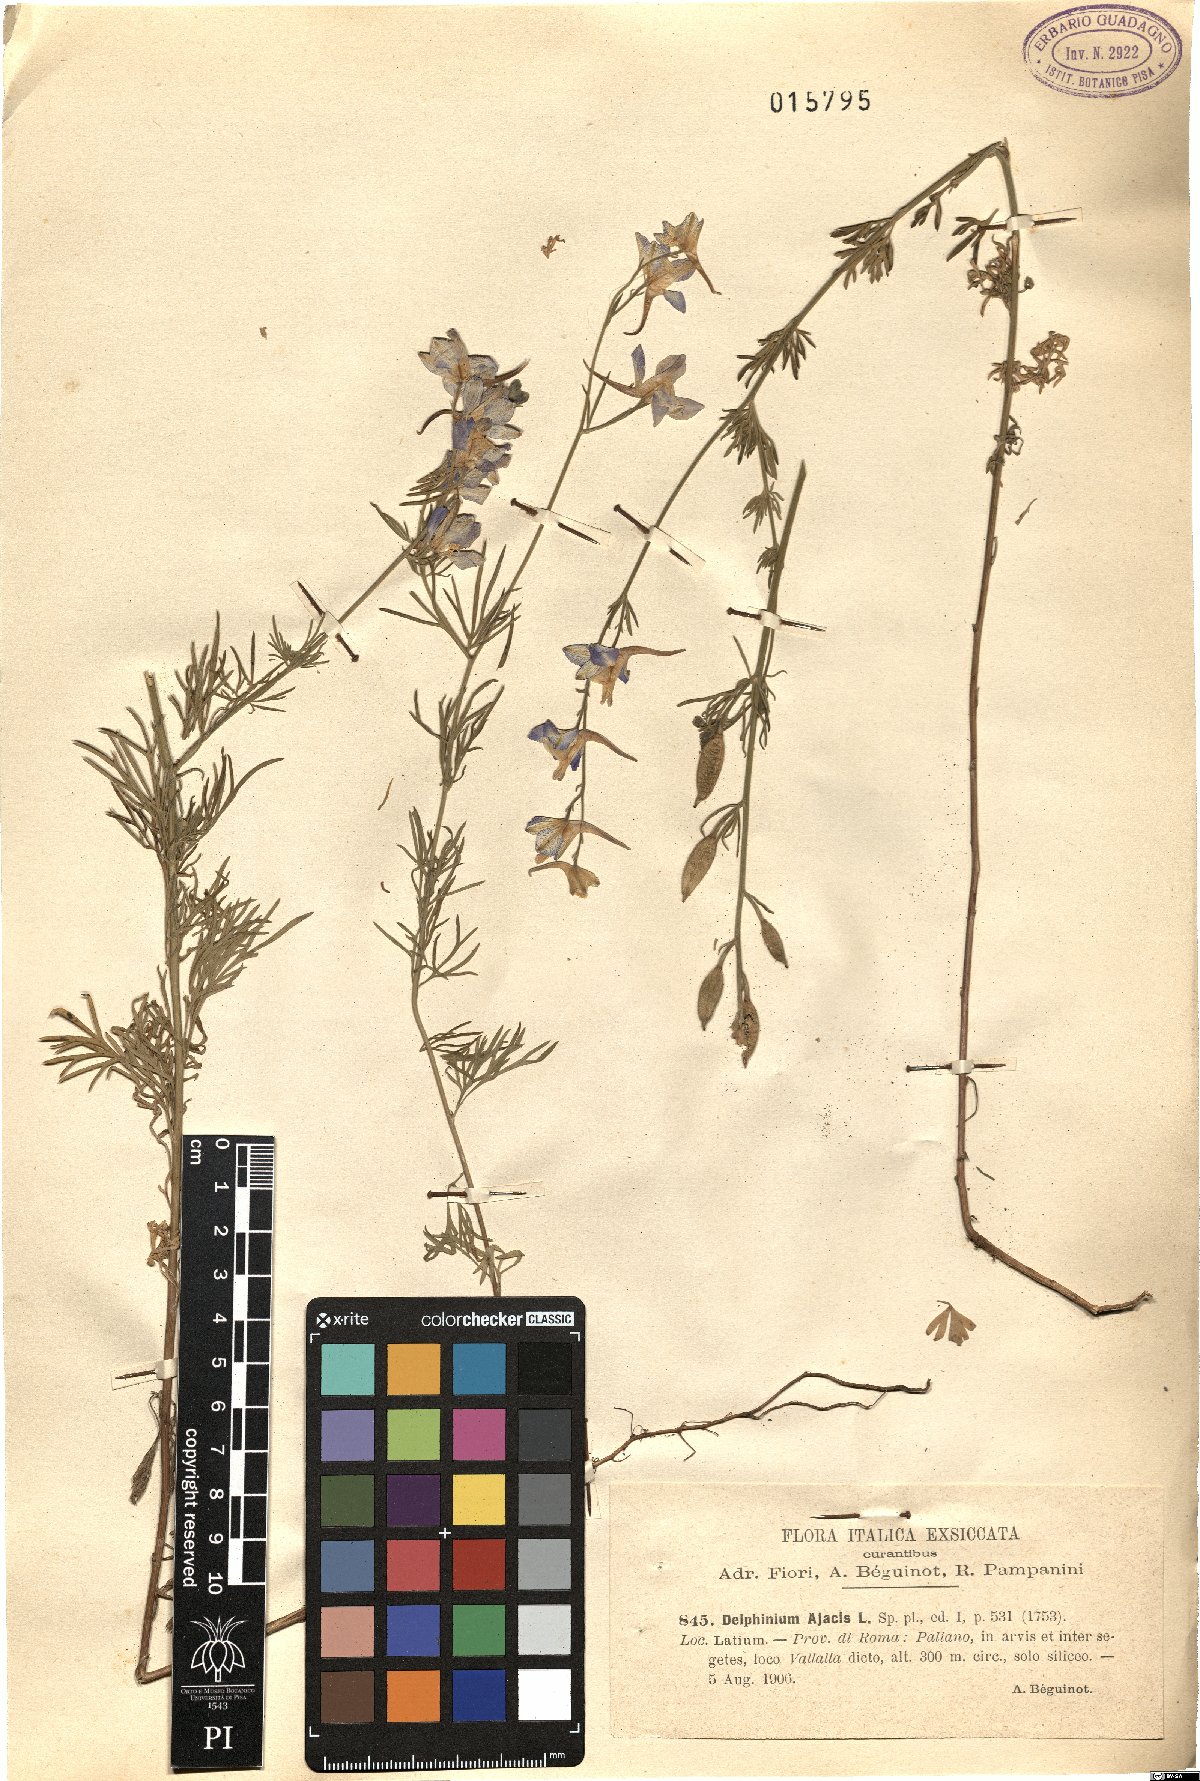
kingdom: Plantae
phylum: Tracheophyta
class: Magnoliopsida
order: Ranunculales
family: Ranunculaceae
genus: Delphinium
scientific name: Delphinium ajacis
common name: Doubtful knight's-spur
